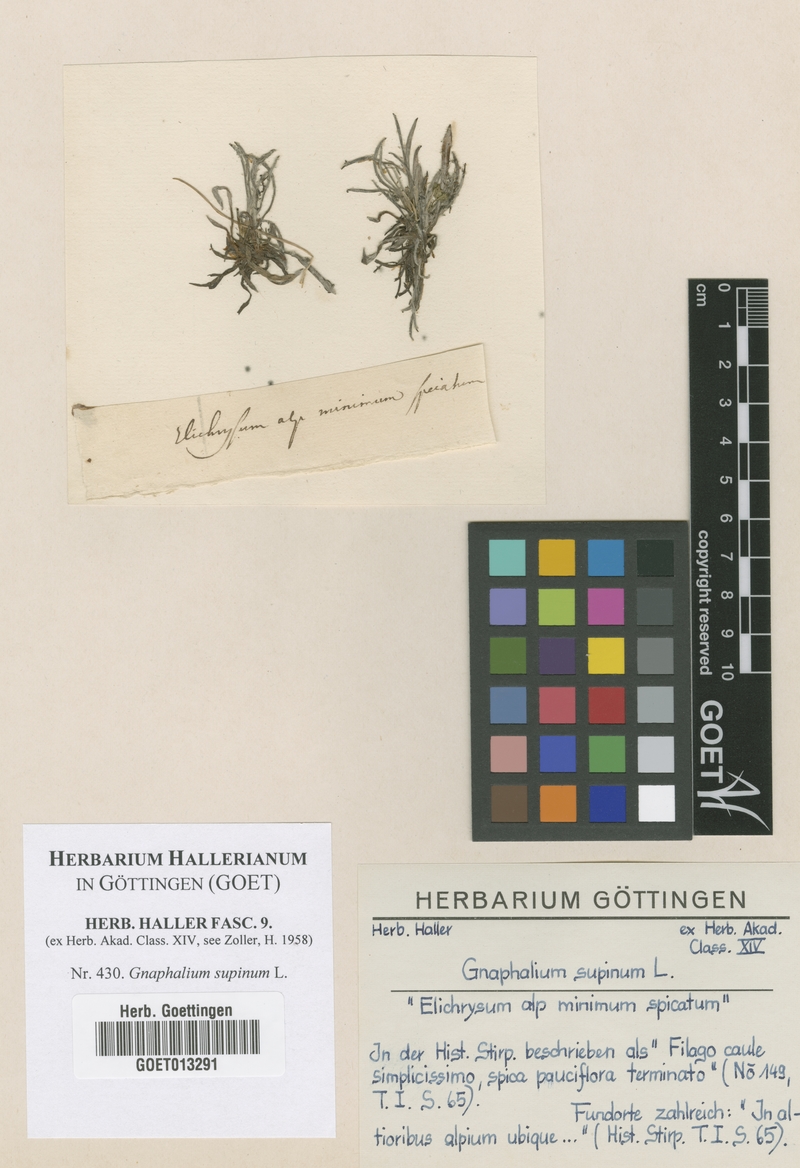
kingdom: Plantae
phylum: Tracheophyta
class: Magnoliopsida
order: Asterales
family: Asteraceae
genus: Omalotheca
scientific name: Omalotheca supina
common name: Alpine arctic-cudweed
